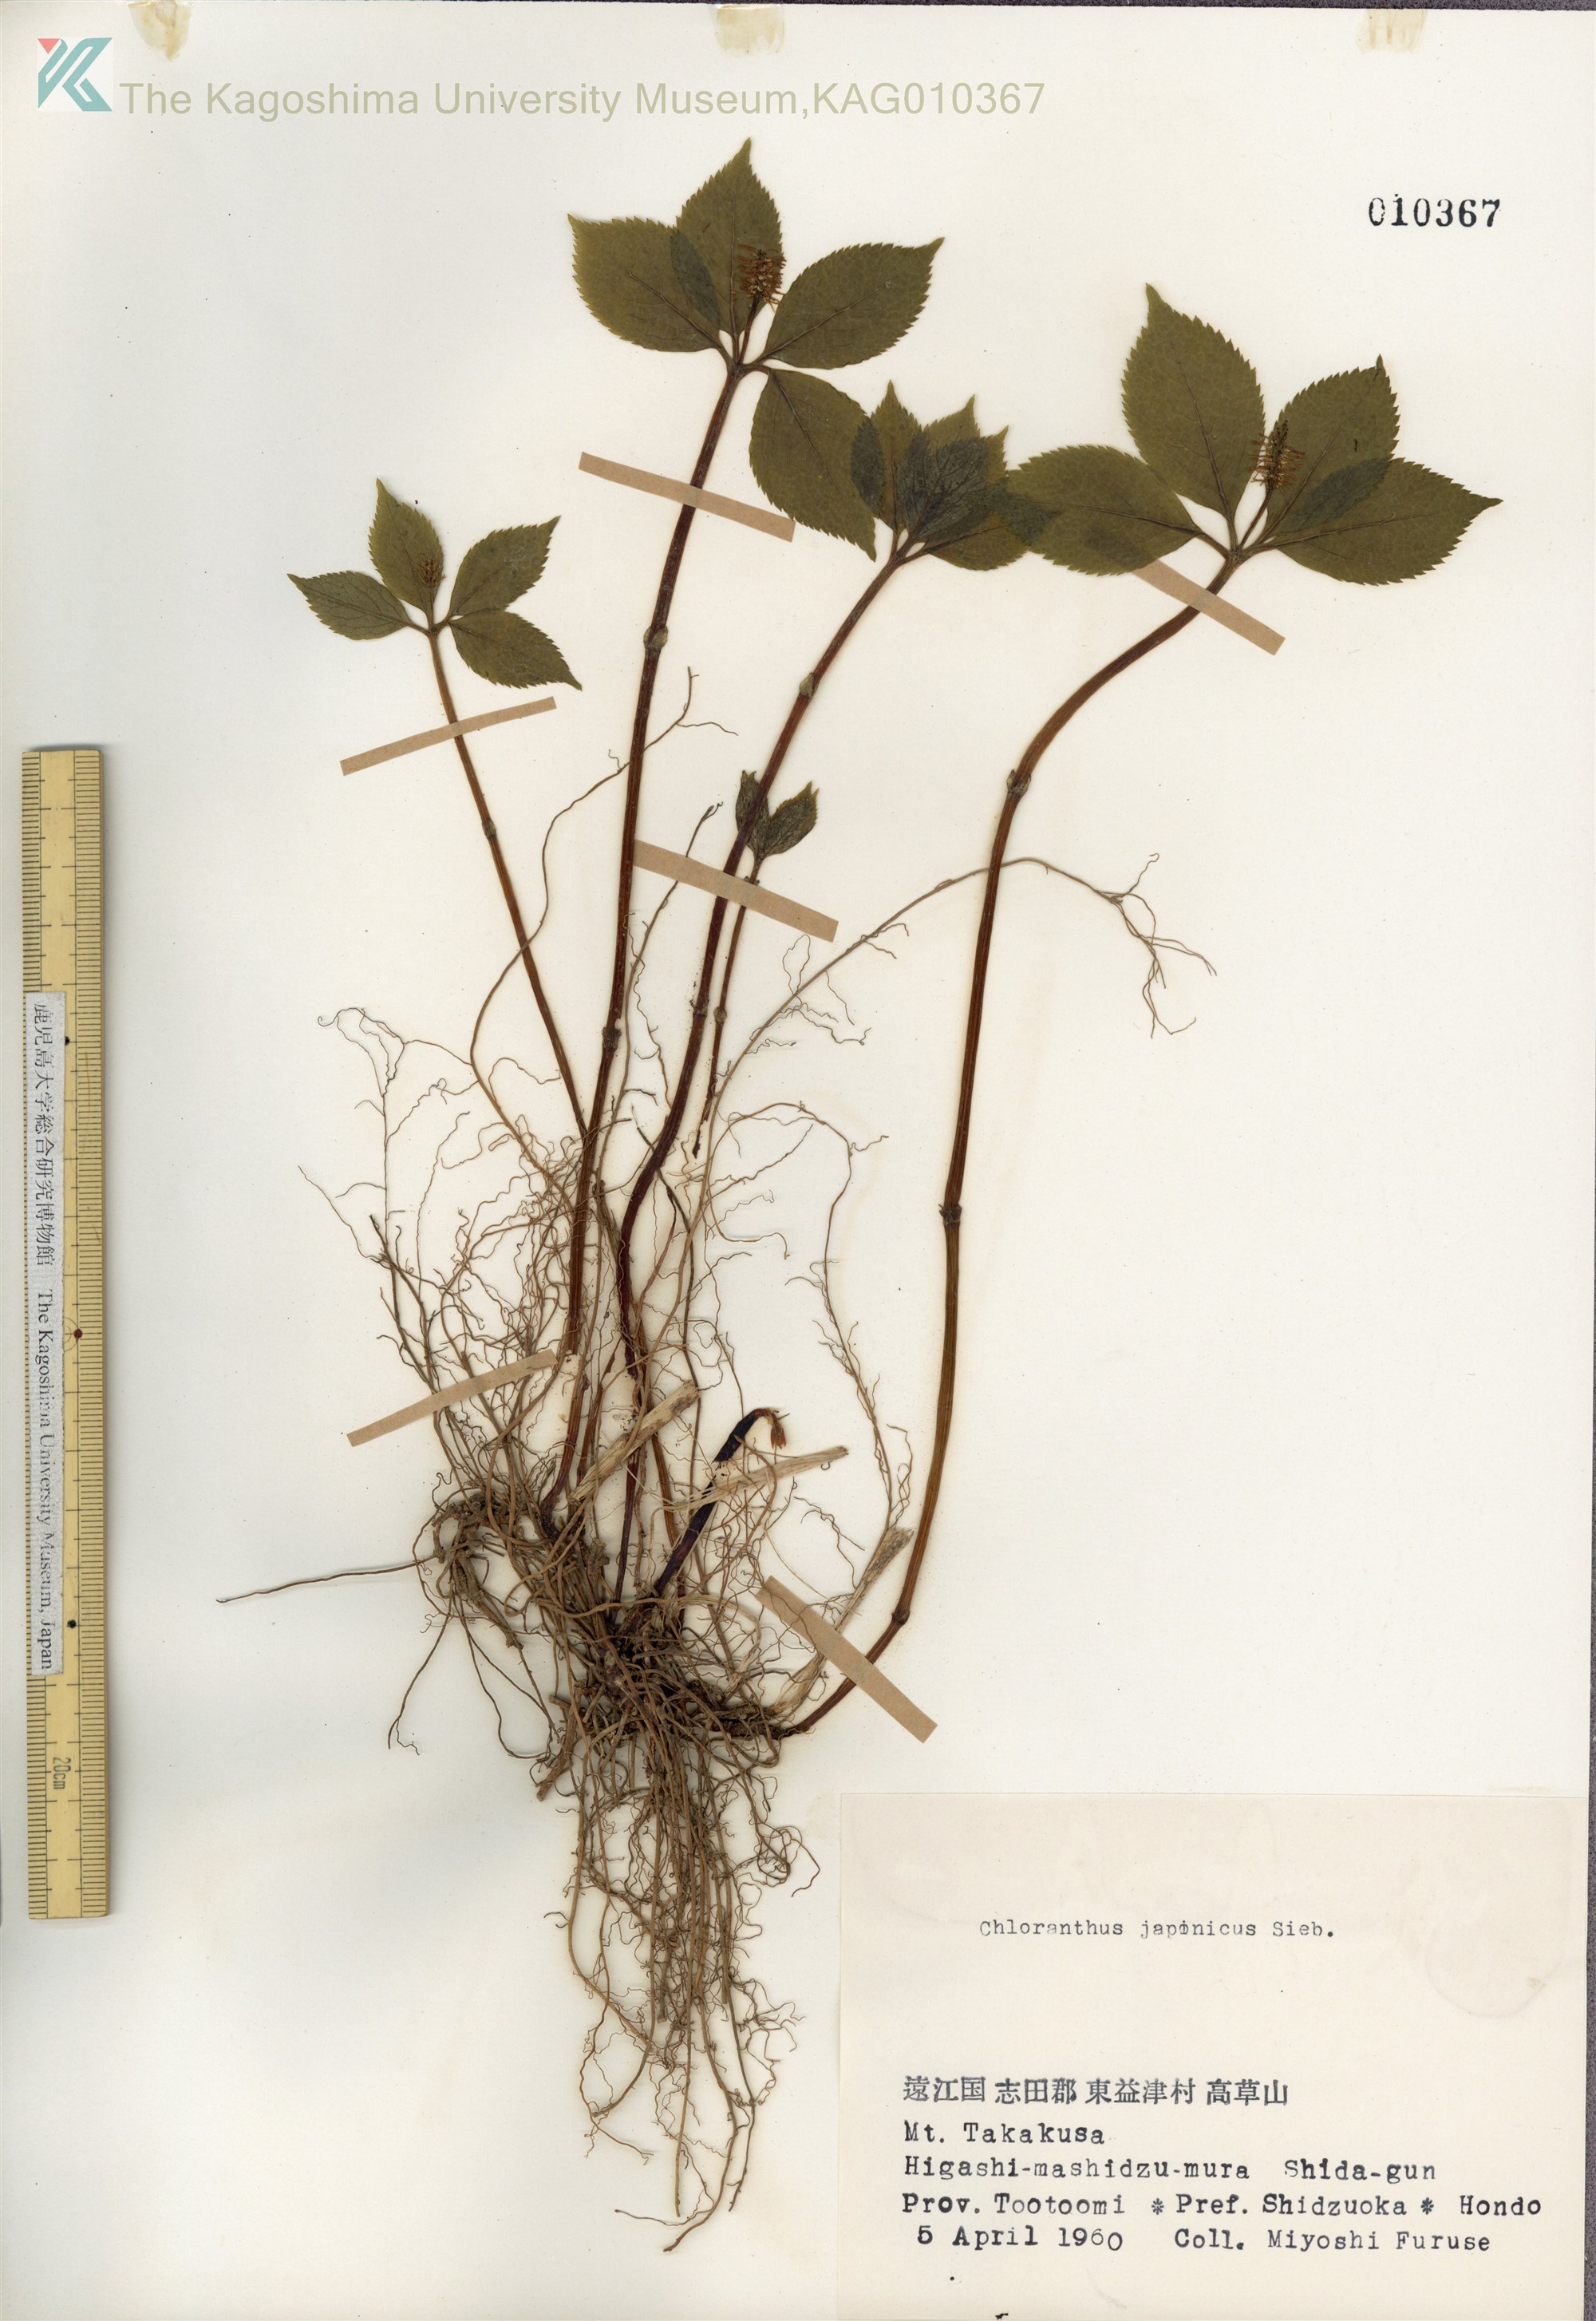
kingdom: Plantae
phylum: Tracheophyta
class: Magnoliopsida
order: Chloranthales
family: Chloranthaceae
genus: Chloranthus
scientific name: Chloranthus japonicus
